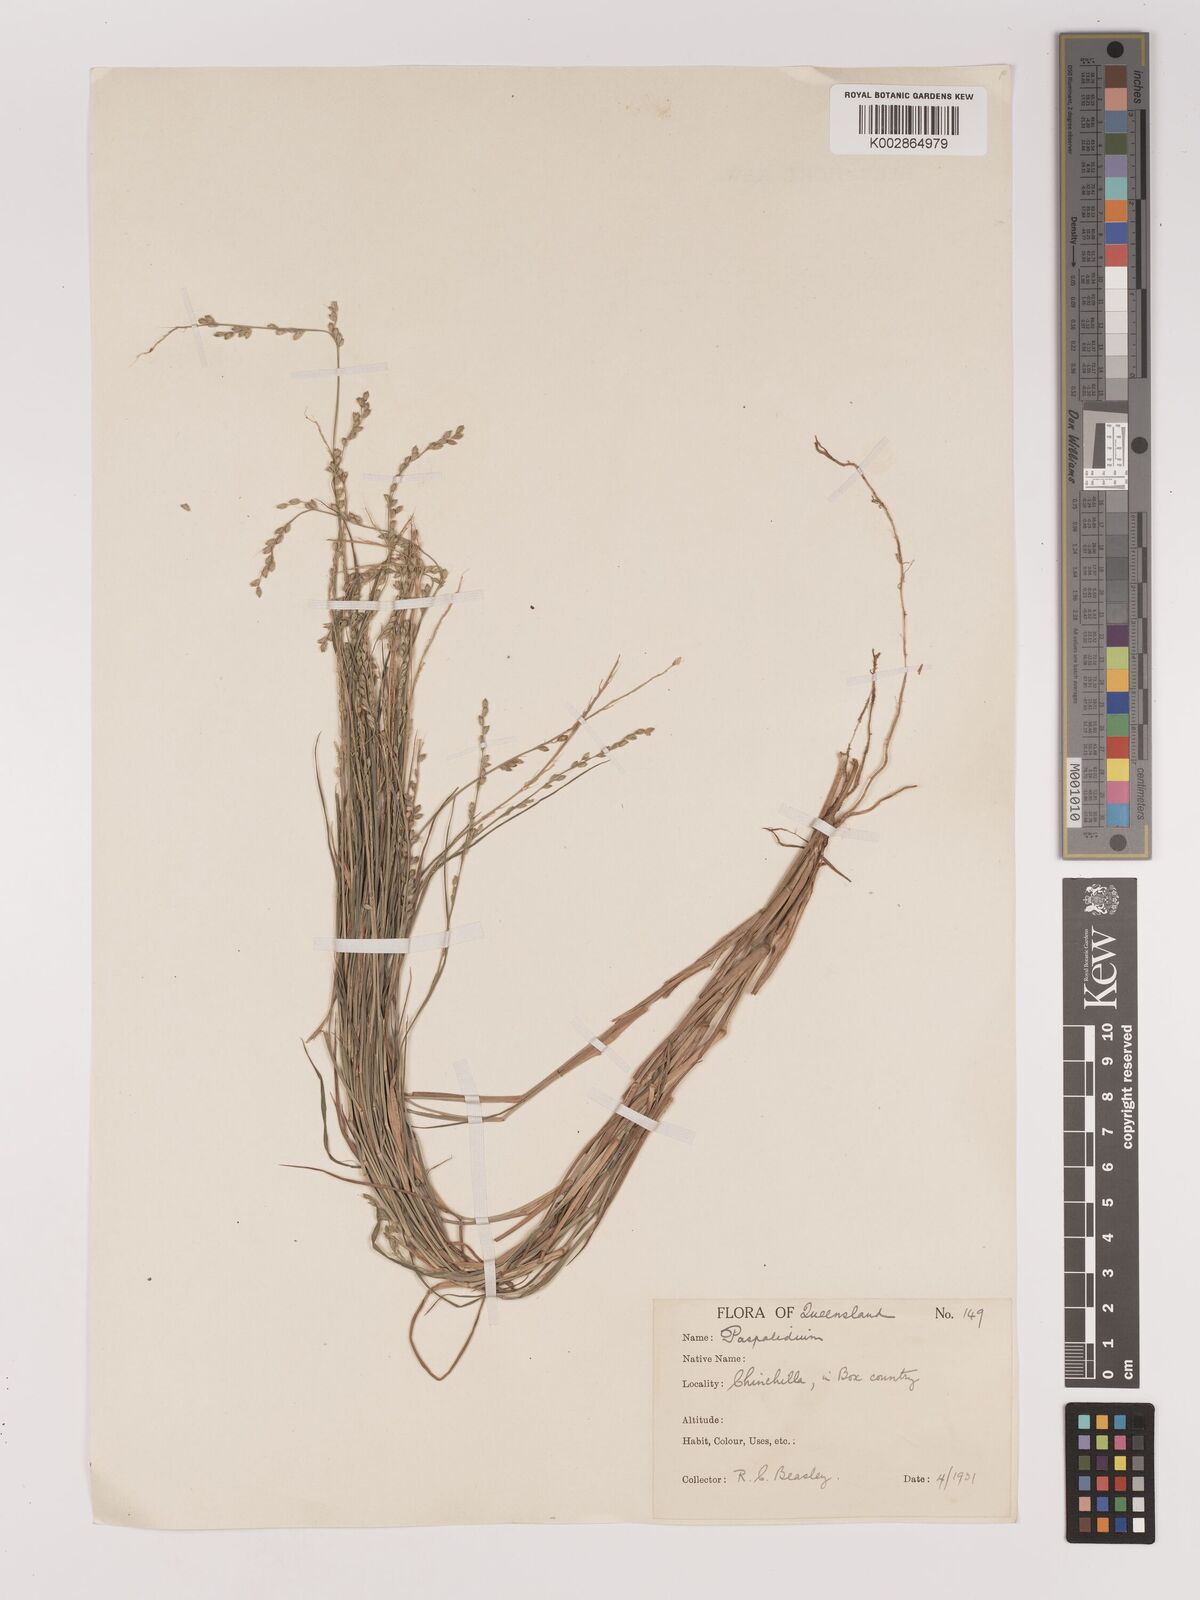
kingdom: Plantae
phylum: Tracheophyta
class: Liliopsida
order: Poales
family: Poaceae
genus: Setaria
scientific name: Setaria
